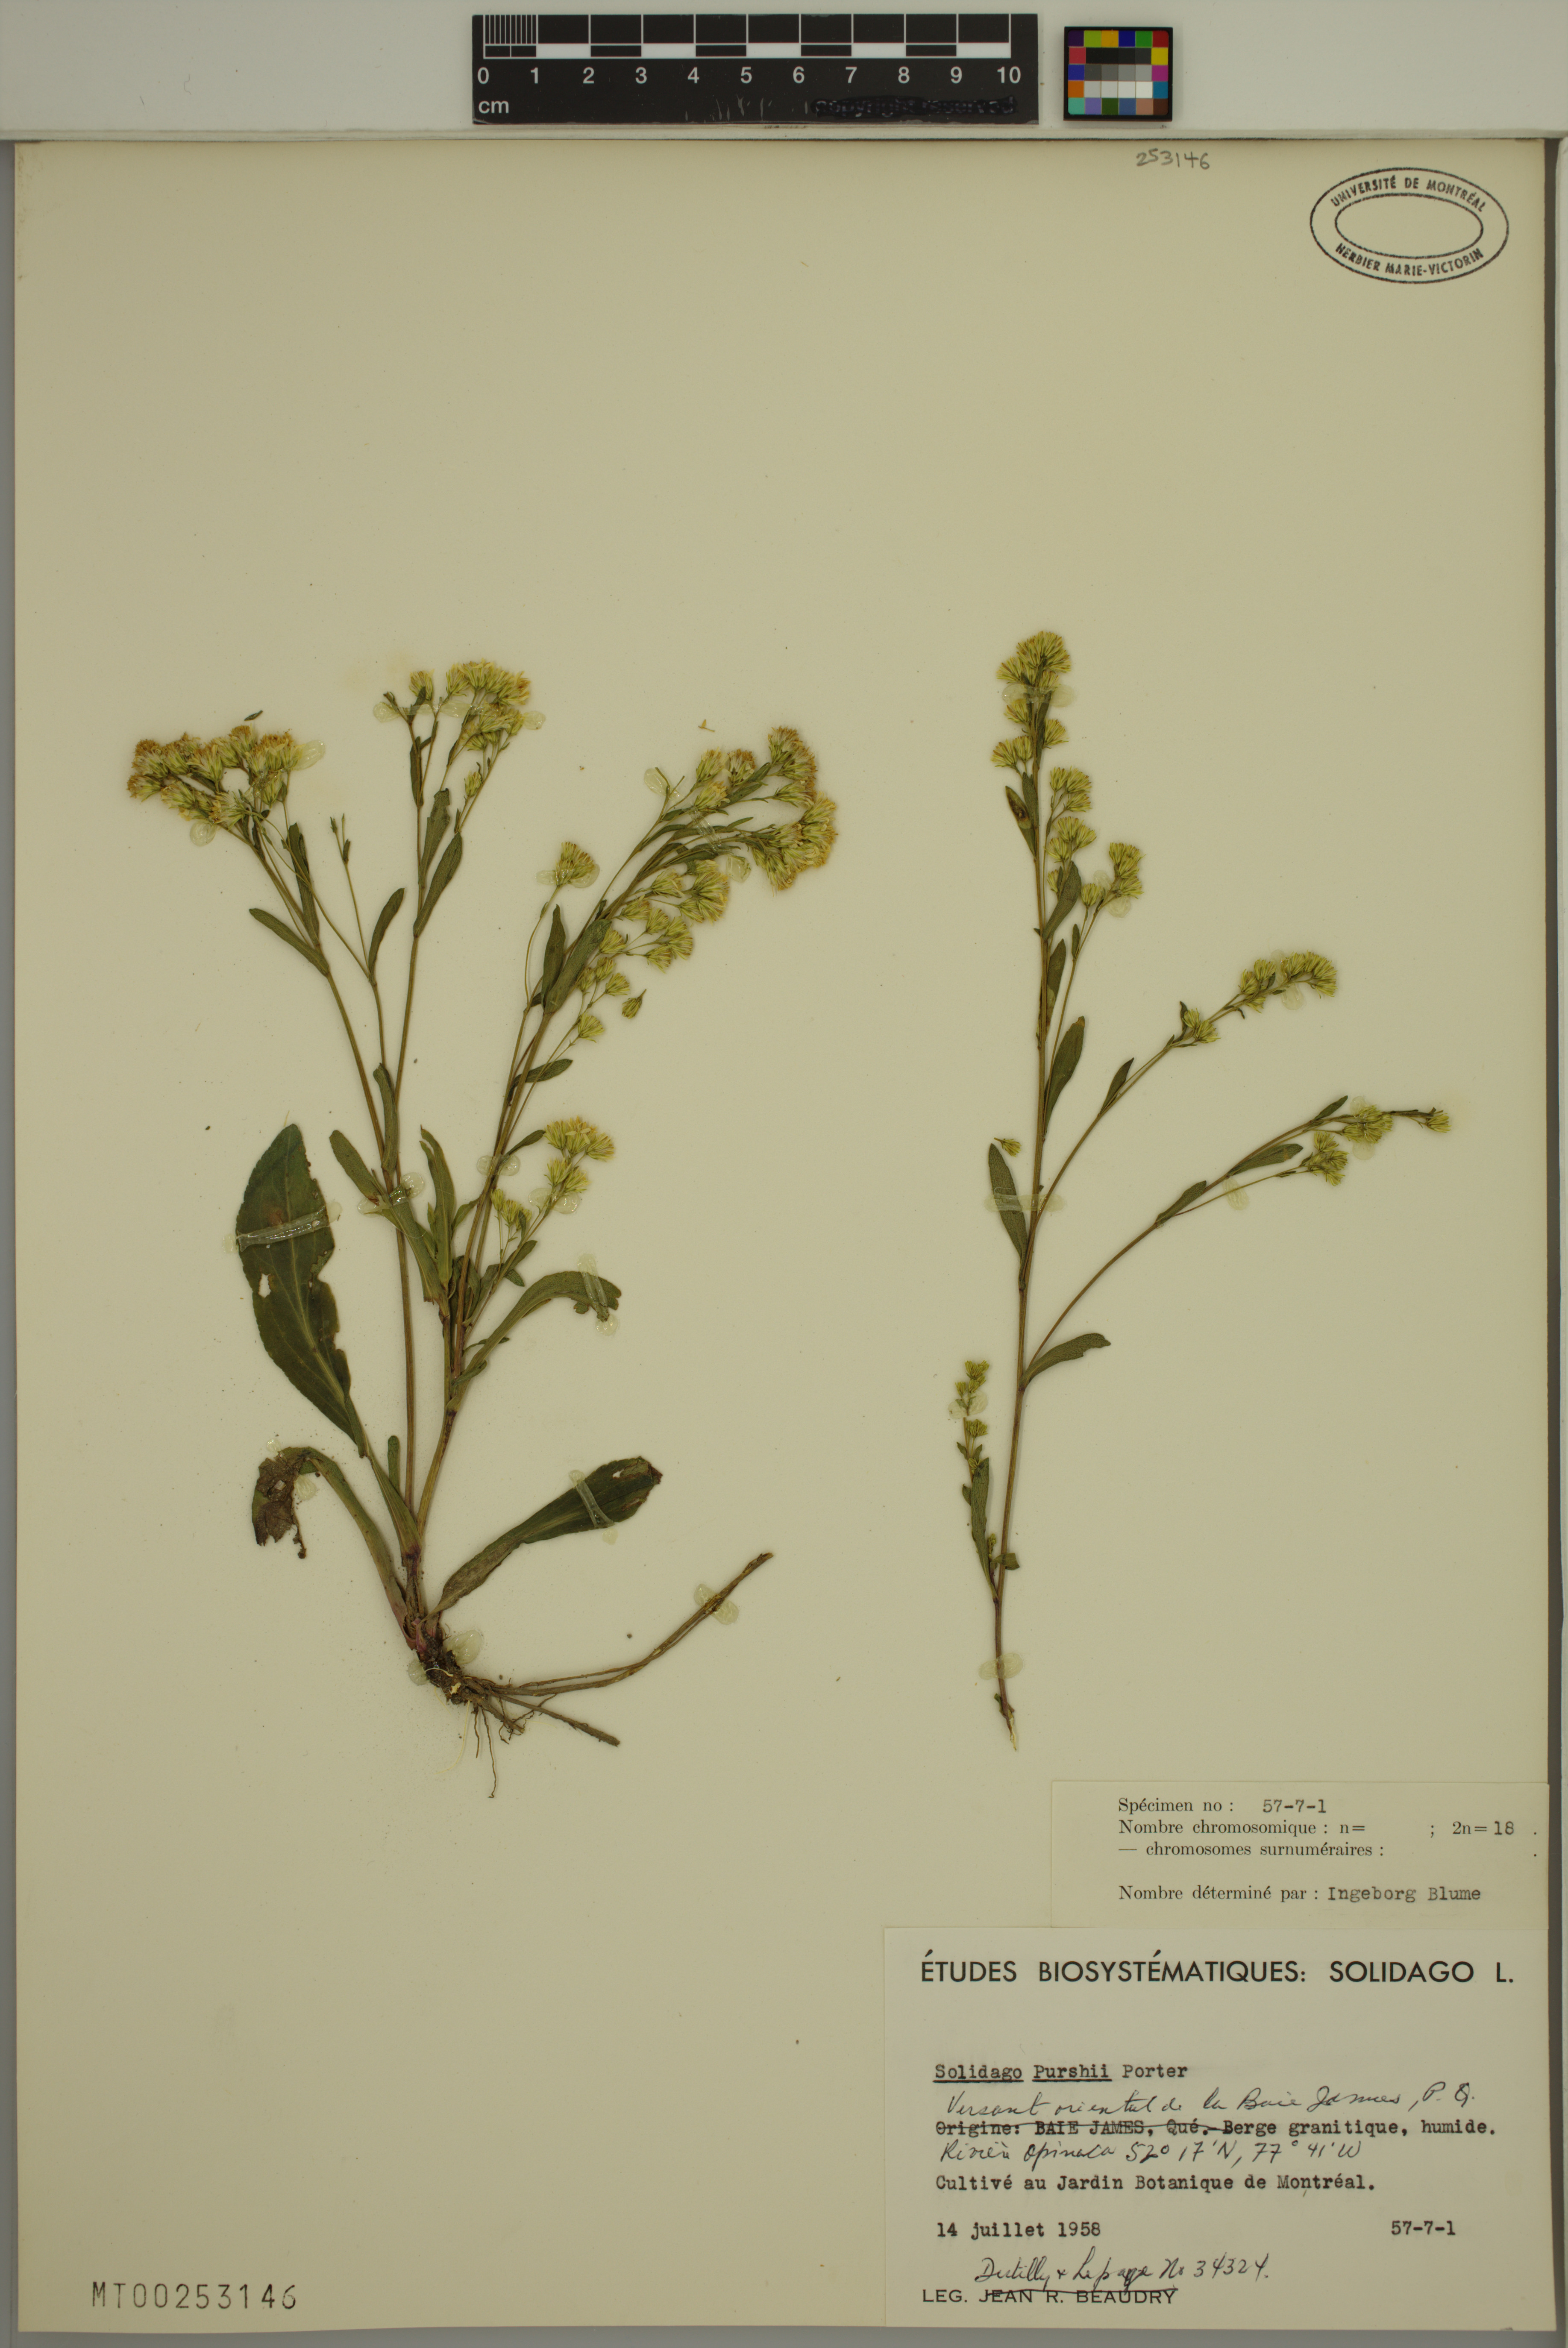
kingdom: Plantae
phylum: Tracheophyta
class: Magnoliopsida
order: Asterales
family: Asteraceae
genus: Solidago
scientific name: Solidago uliginosa
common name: Bog goldenrod
